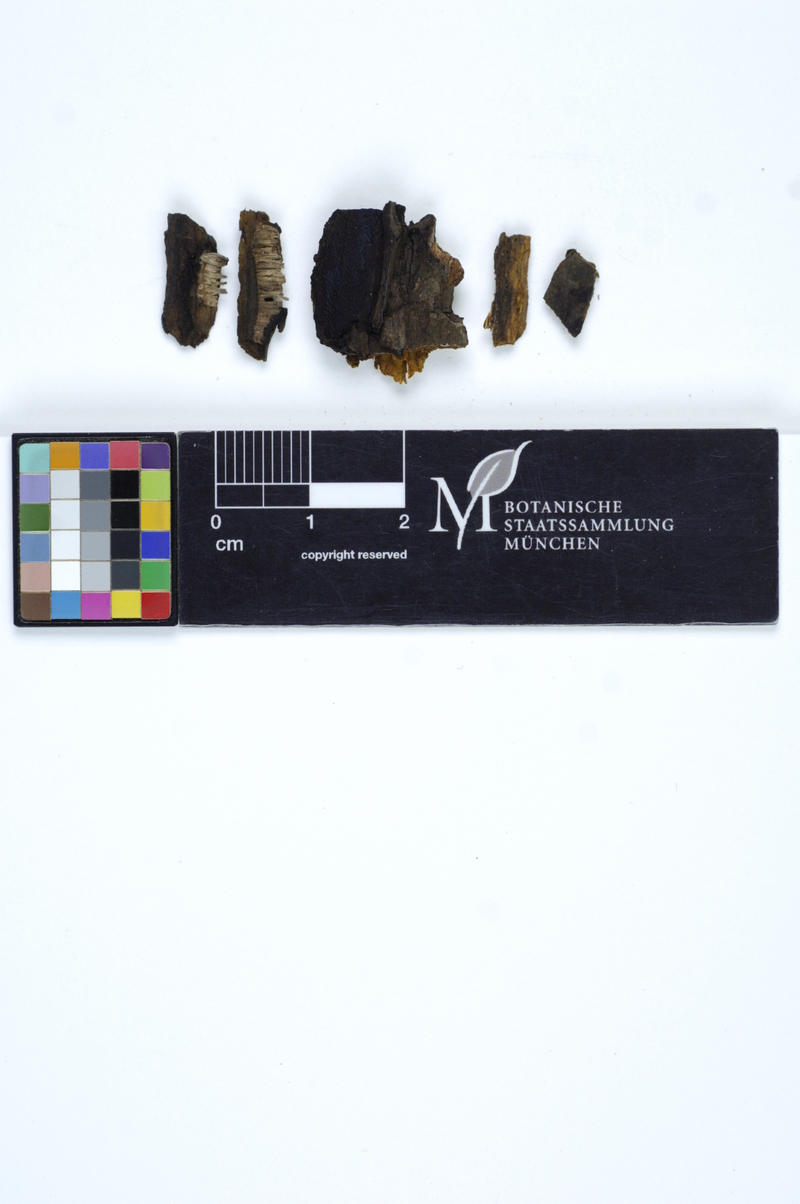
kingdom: Plantae
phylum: Tracheophyta
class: Magnoliopsida
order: Fagales
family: Betulaceae
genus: Alnus
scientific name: Alnus
